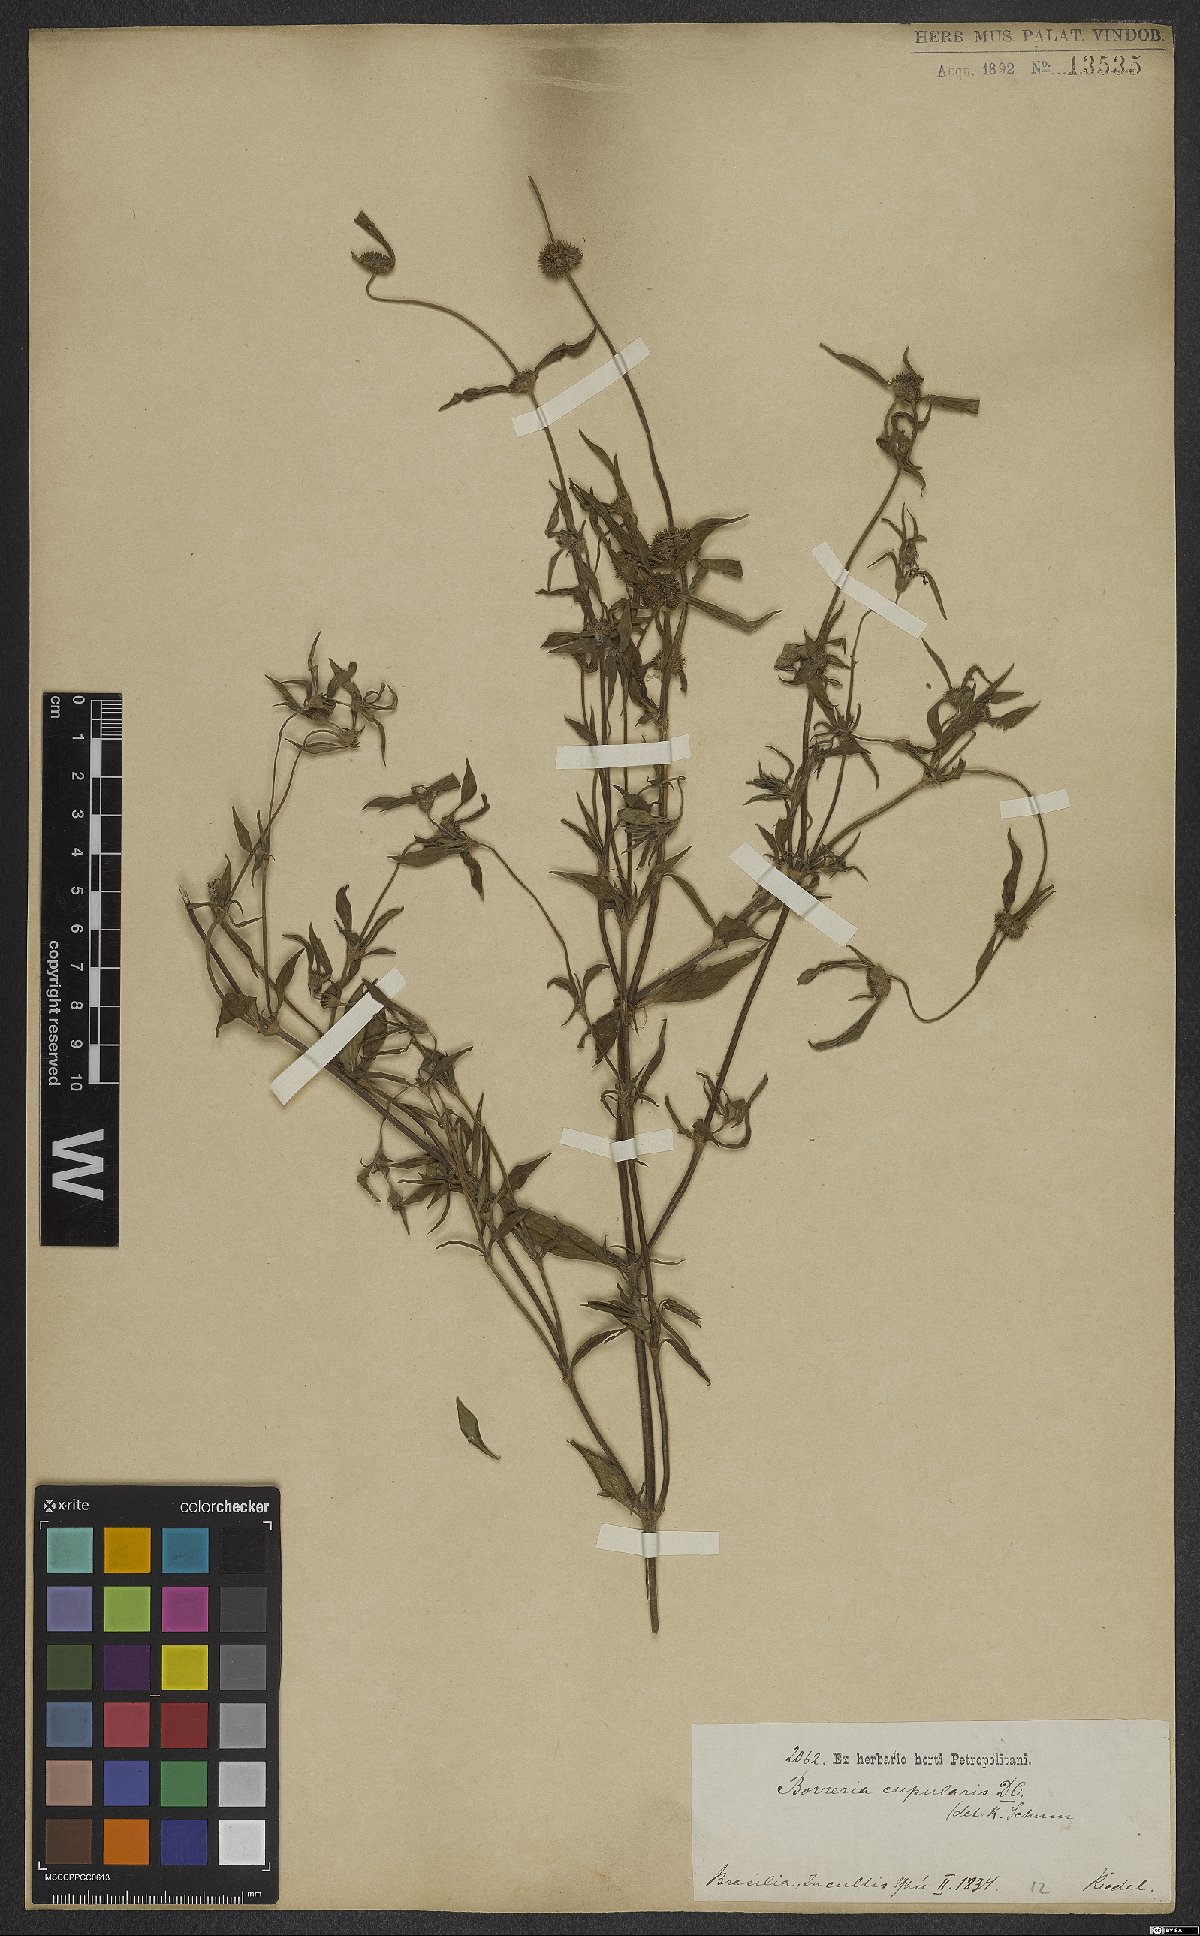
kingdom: Plantae
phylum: Tracheophyta
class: Magnoliopsida
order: Gentianales
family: Rubiaceae
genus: Spermacoce
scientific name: Spermacoce cupularis
